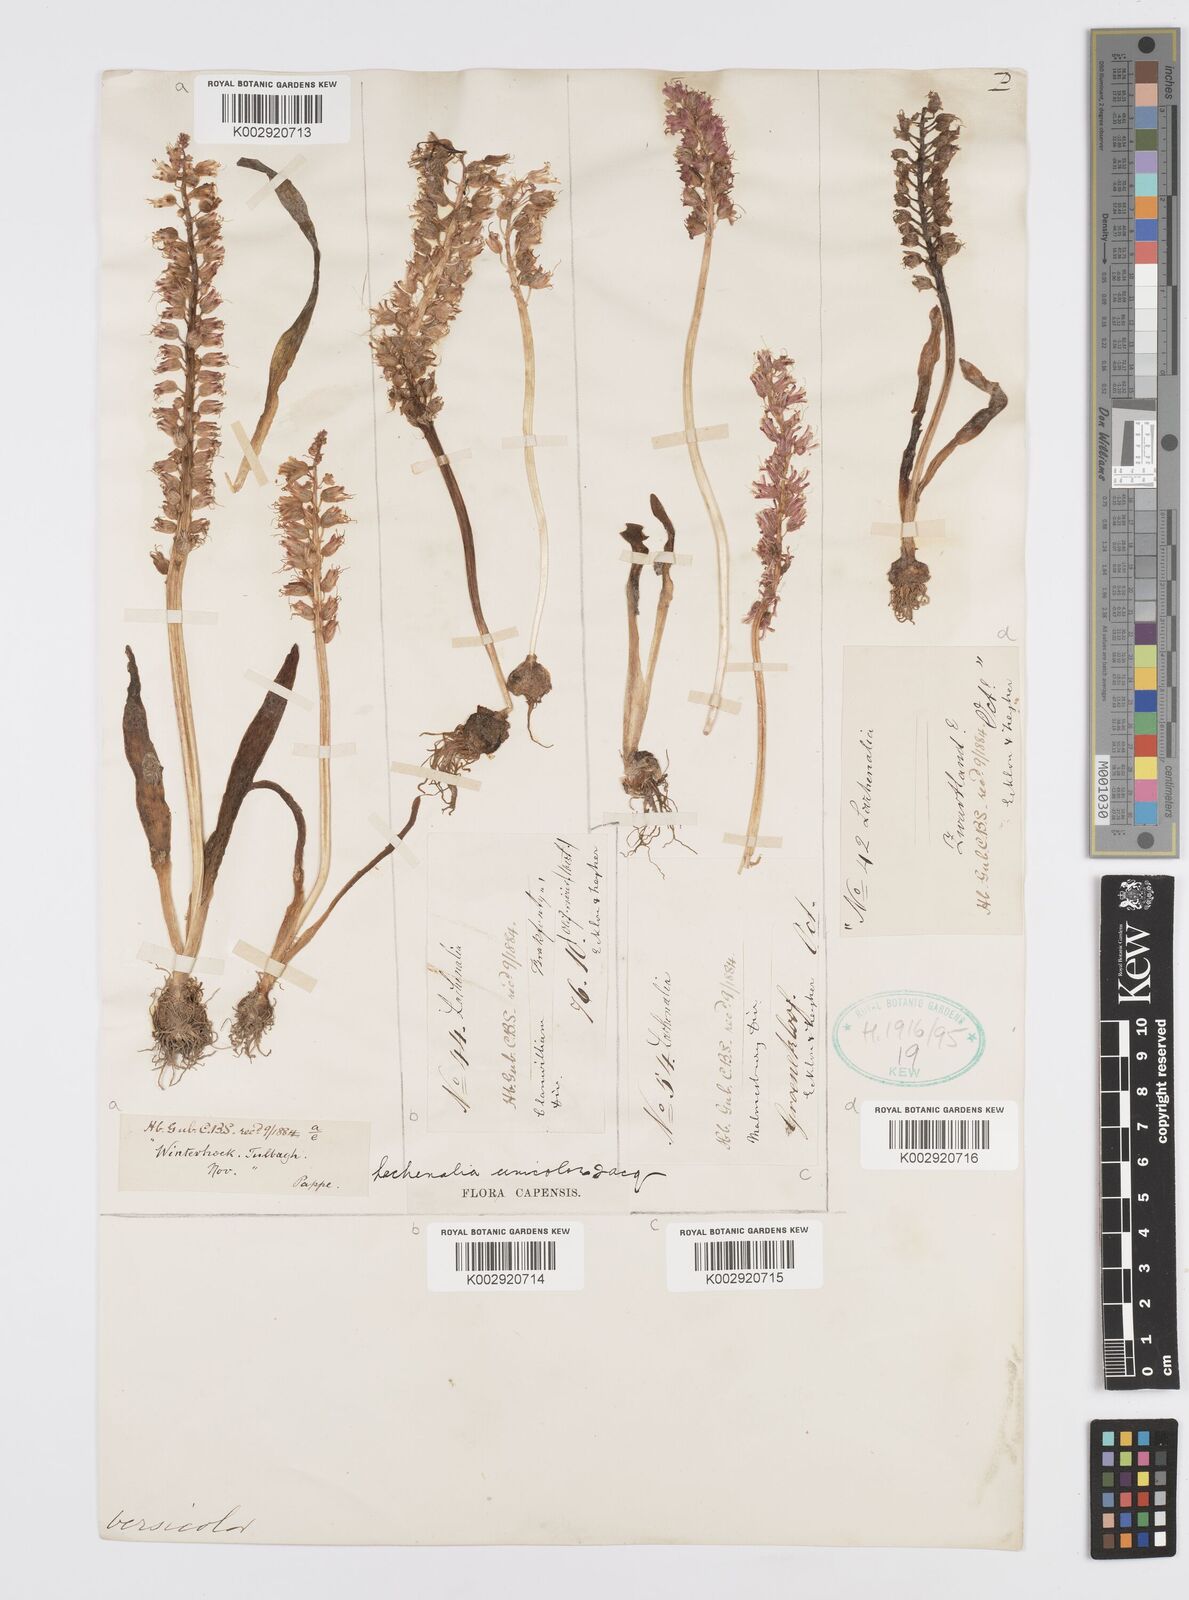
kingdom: Plantae
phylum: Tracheophyta
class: Liliopsida
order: Asparagales
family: Asparagaceae
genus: Lachenalia
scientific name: Lachenalia pallida
